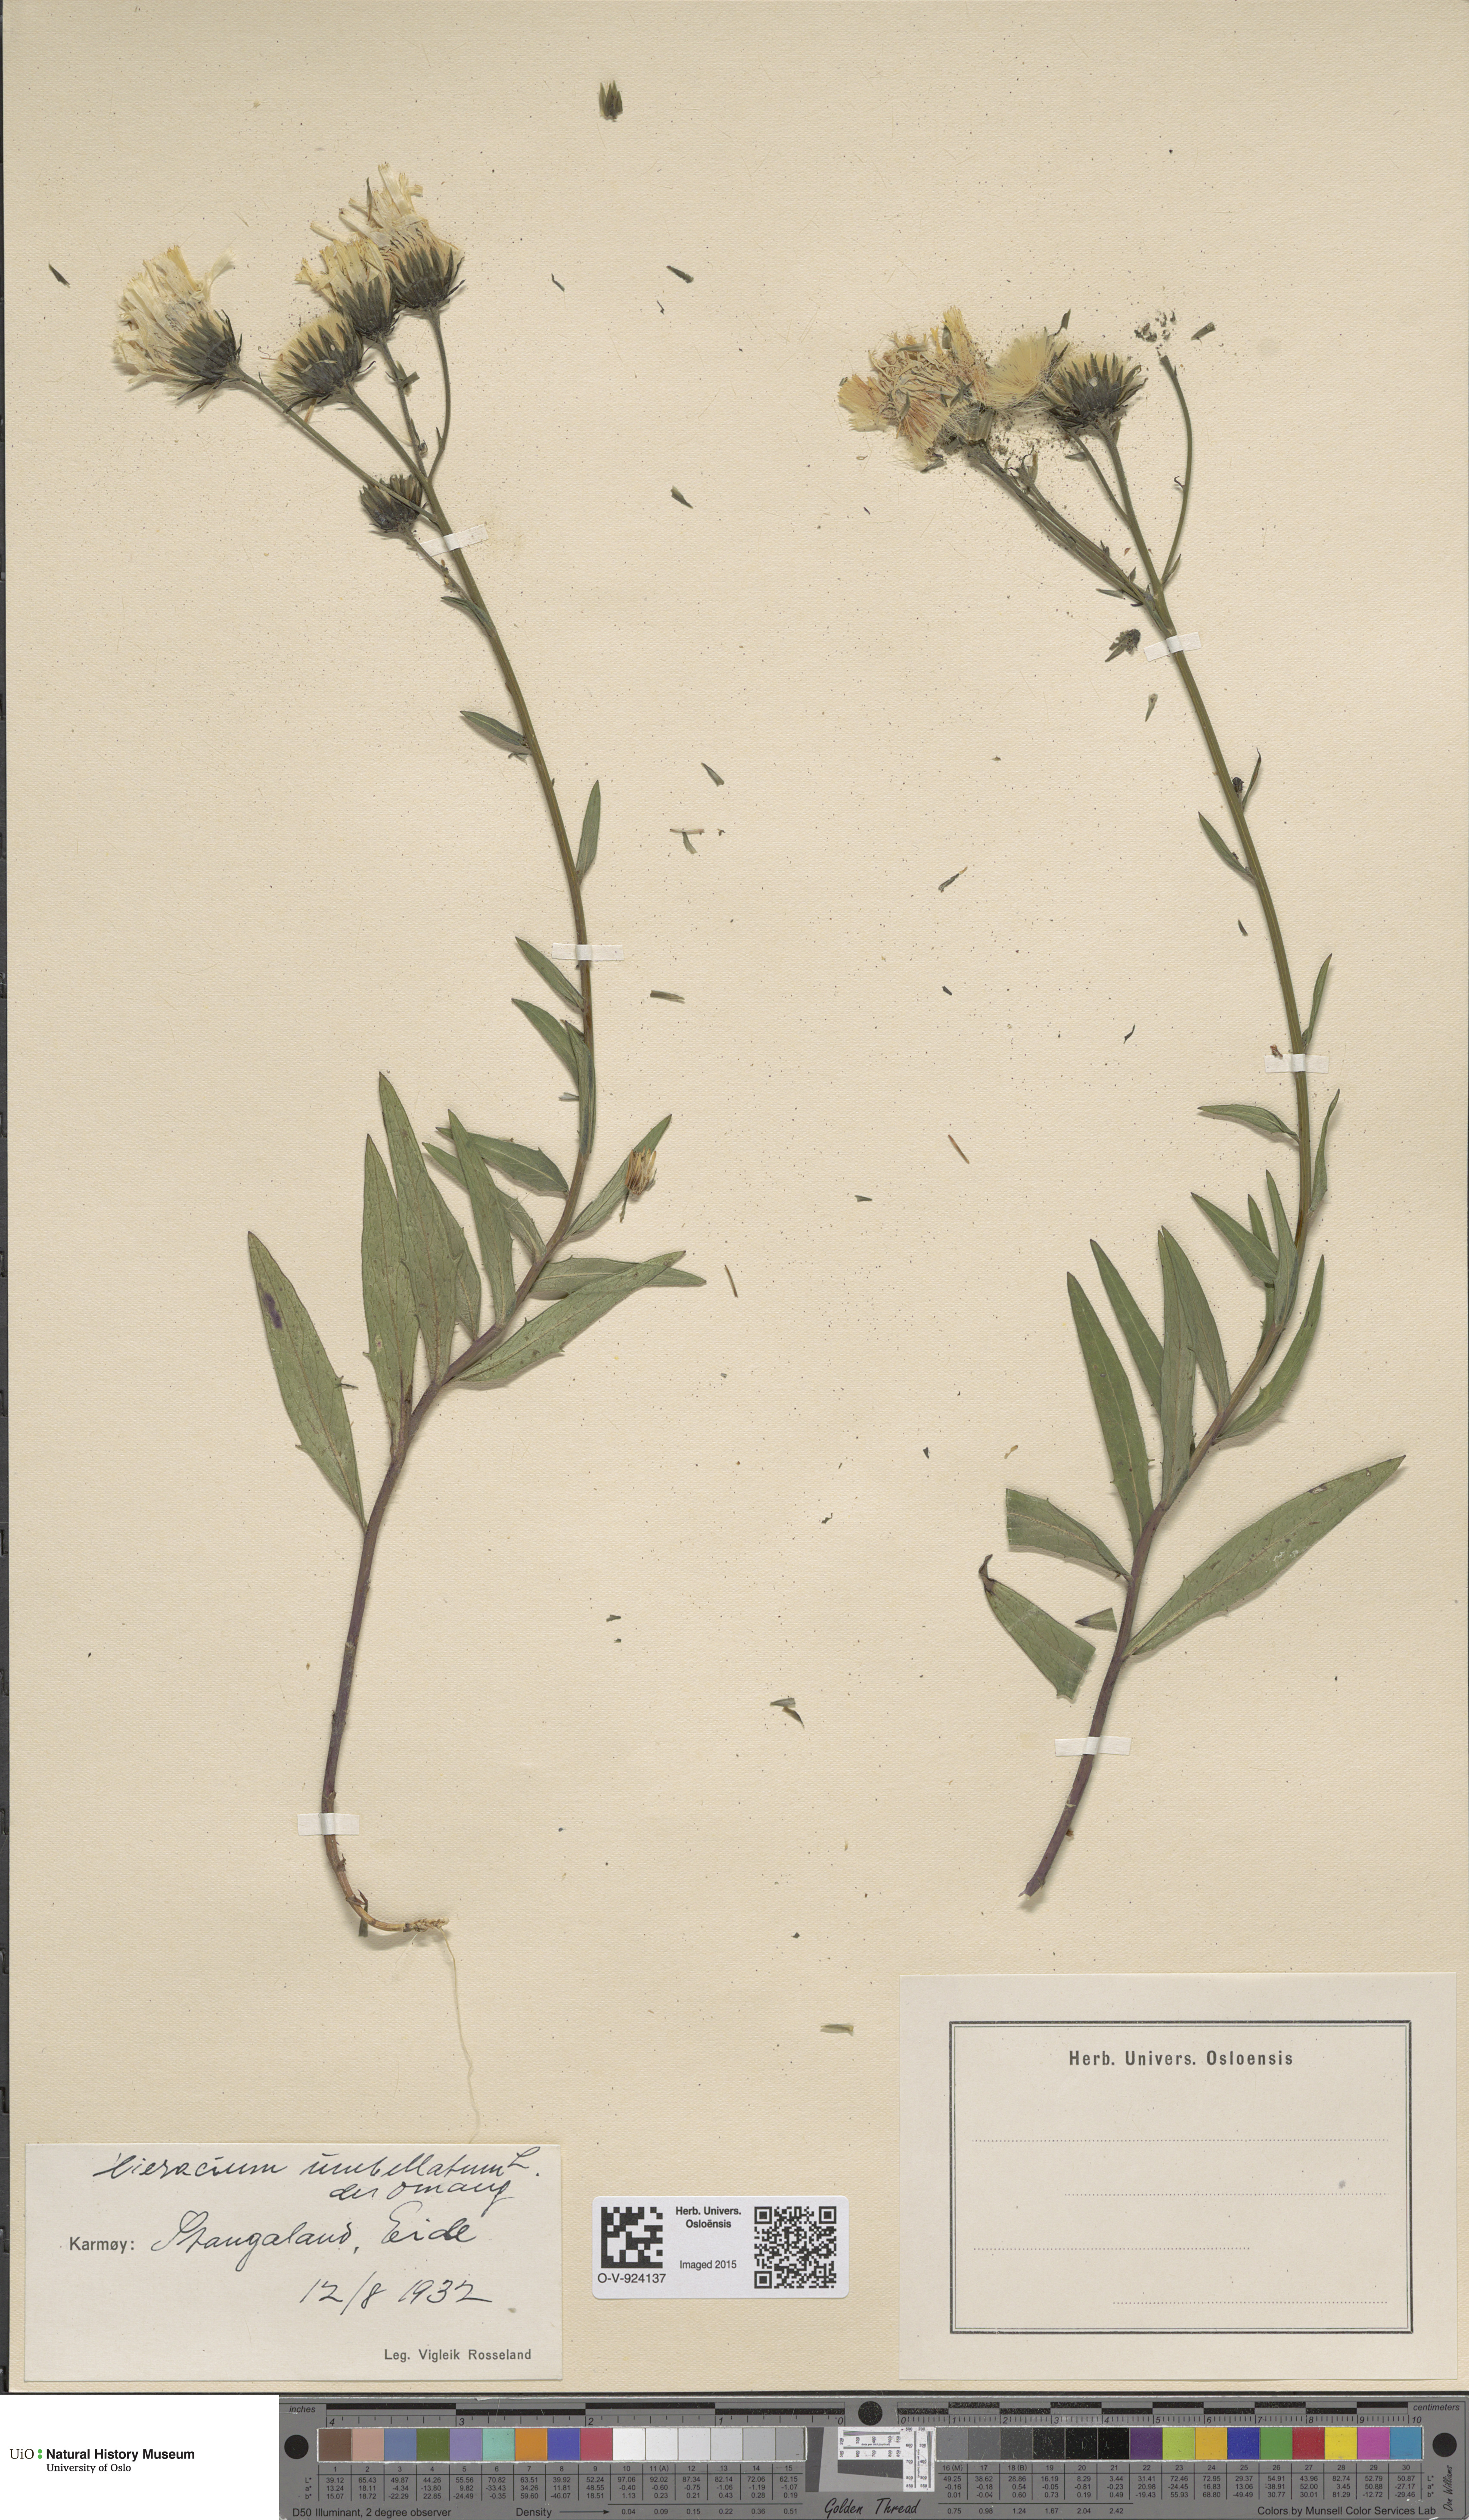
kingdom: Plantae
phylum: Tracheophyta
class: Magnoliopsida
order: Asterales
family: Asteraceae
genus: Hieracium
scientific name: Hieracium umbellatum
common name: Northern hawkweed
